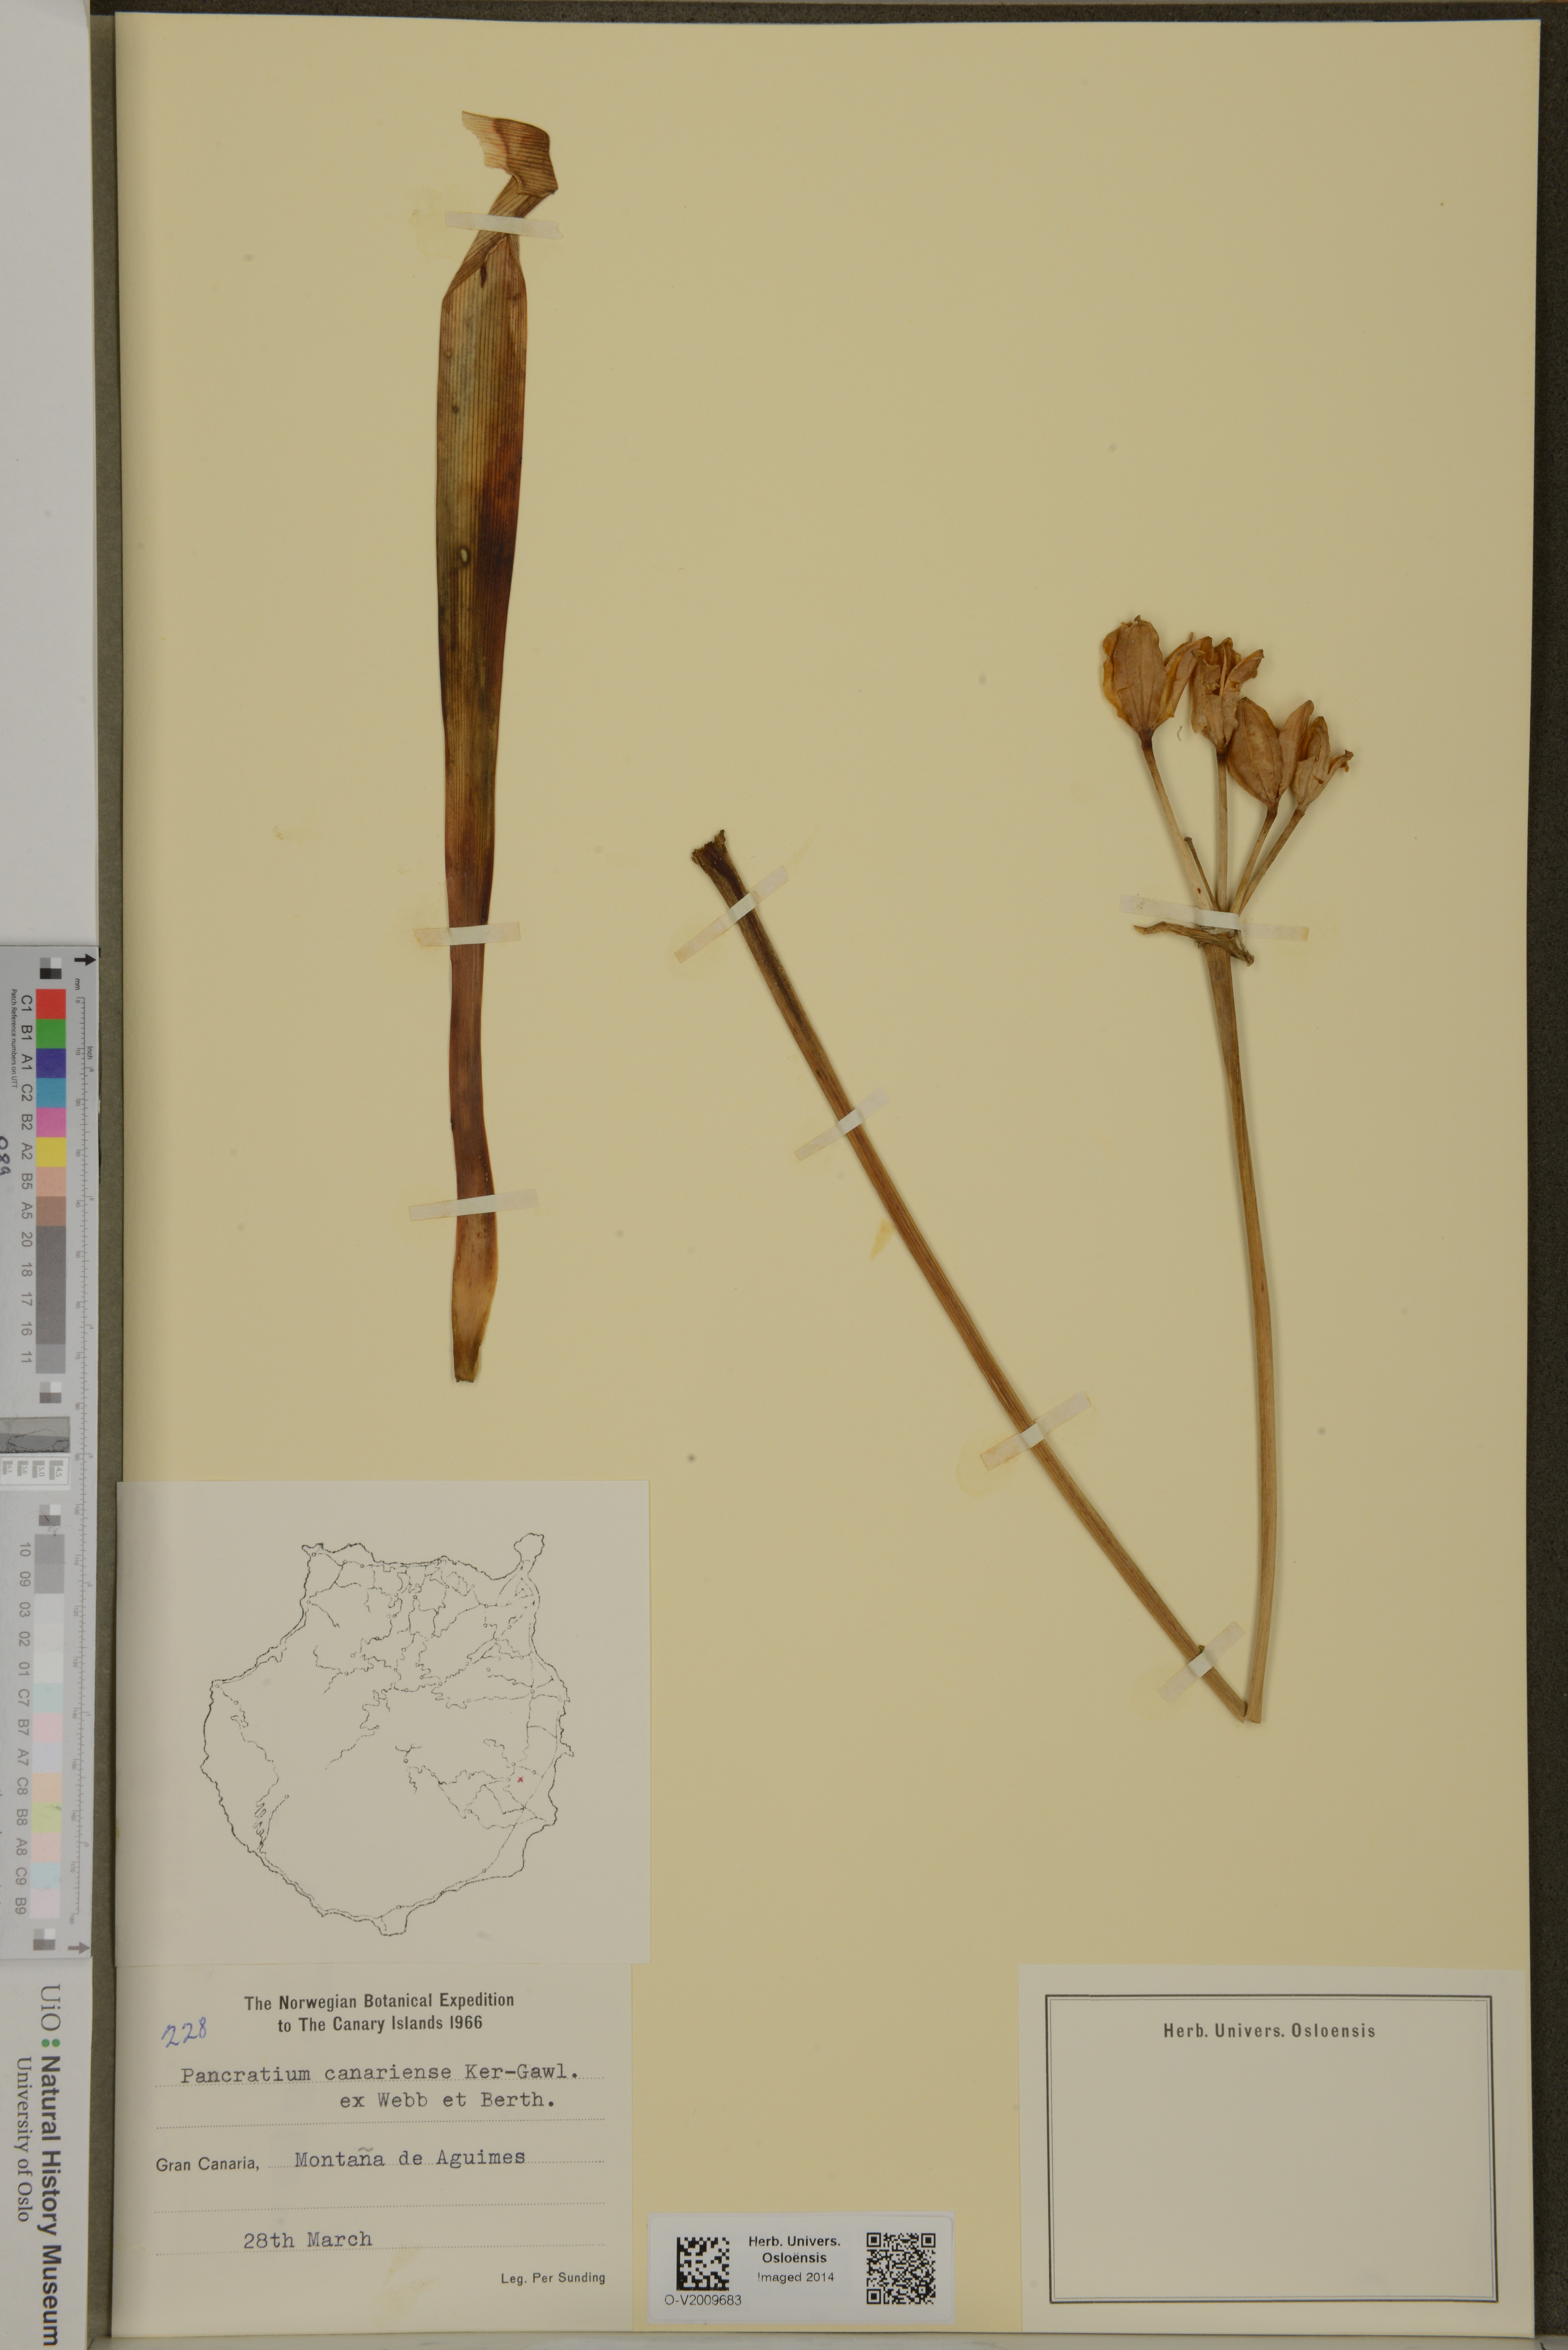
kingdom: Plantae
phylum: Tracheophyta
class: Liliopsida
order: Asparagales
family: Amaryllidaceae
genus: Pancratium
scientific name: Pancratium canariense
